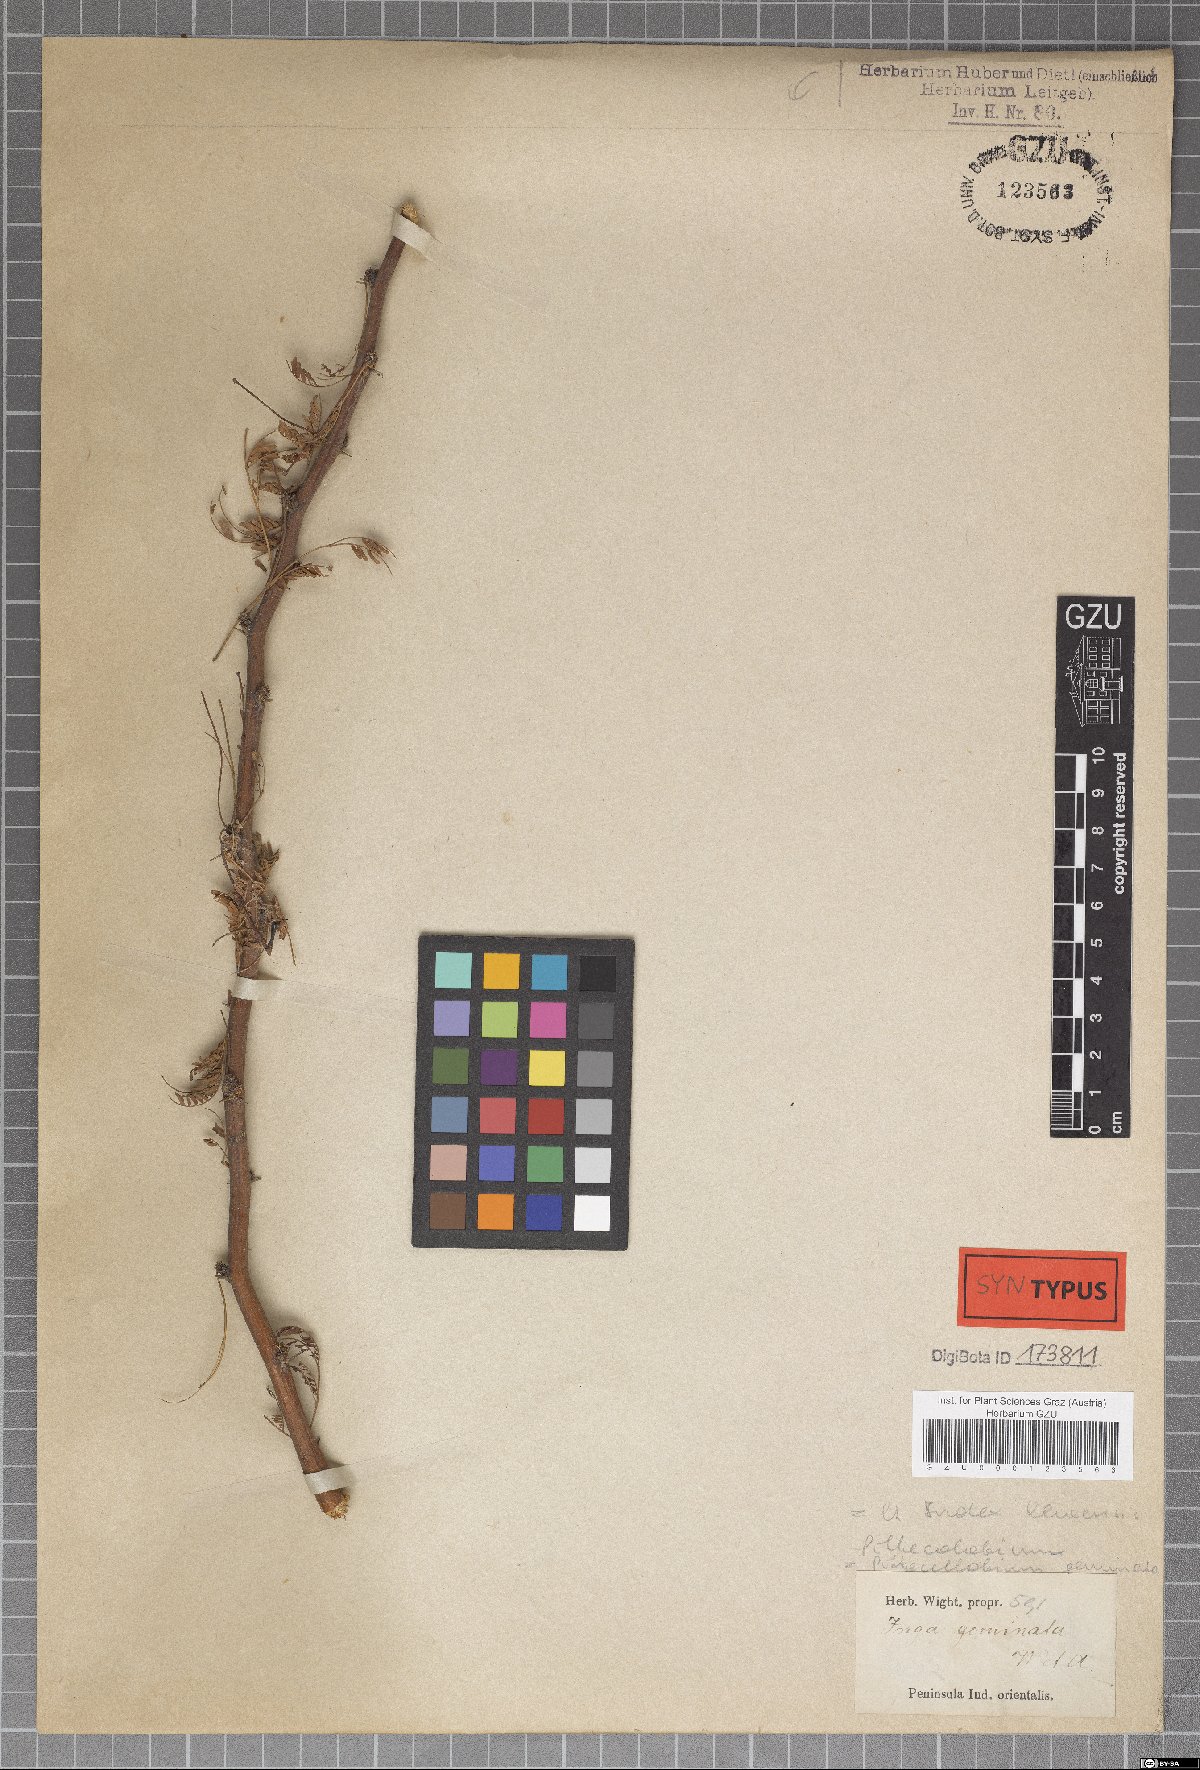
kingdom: Plantae
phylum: Tracheophyta
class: Magnoliopsida
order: Fabales
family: Fabaceae
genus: Thailentadopsis
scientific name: Thailentadopsis nitida
